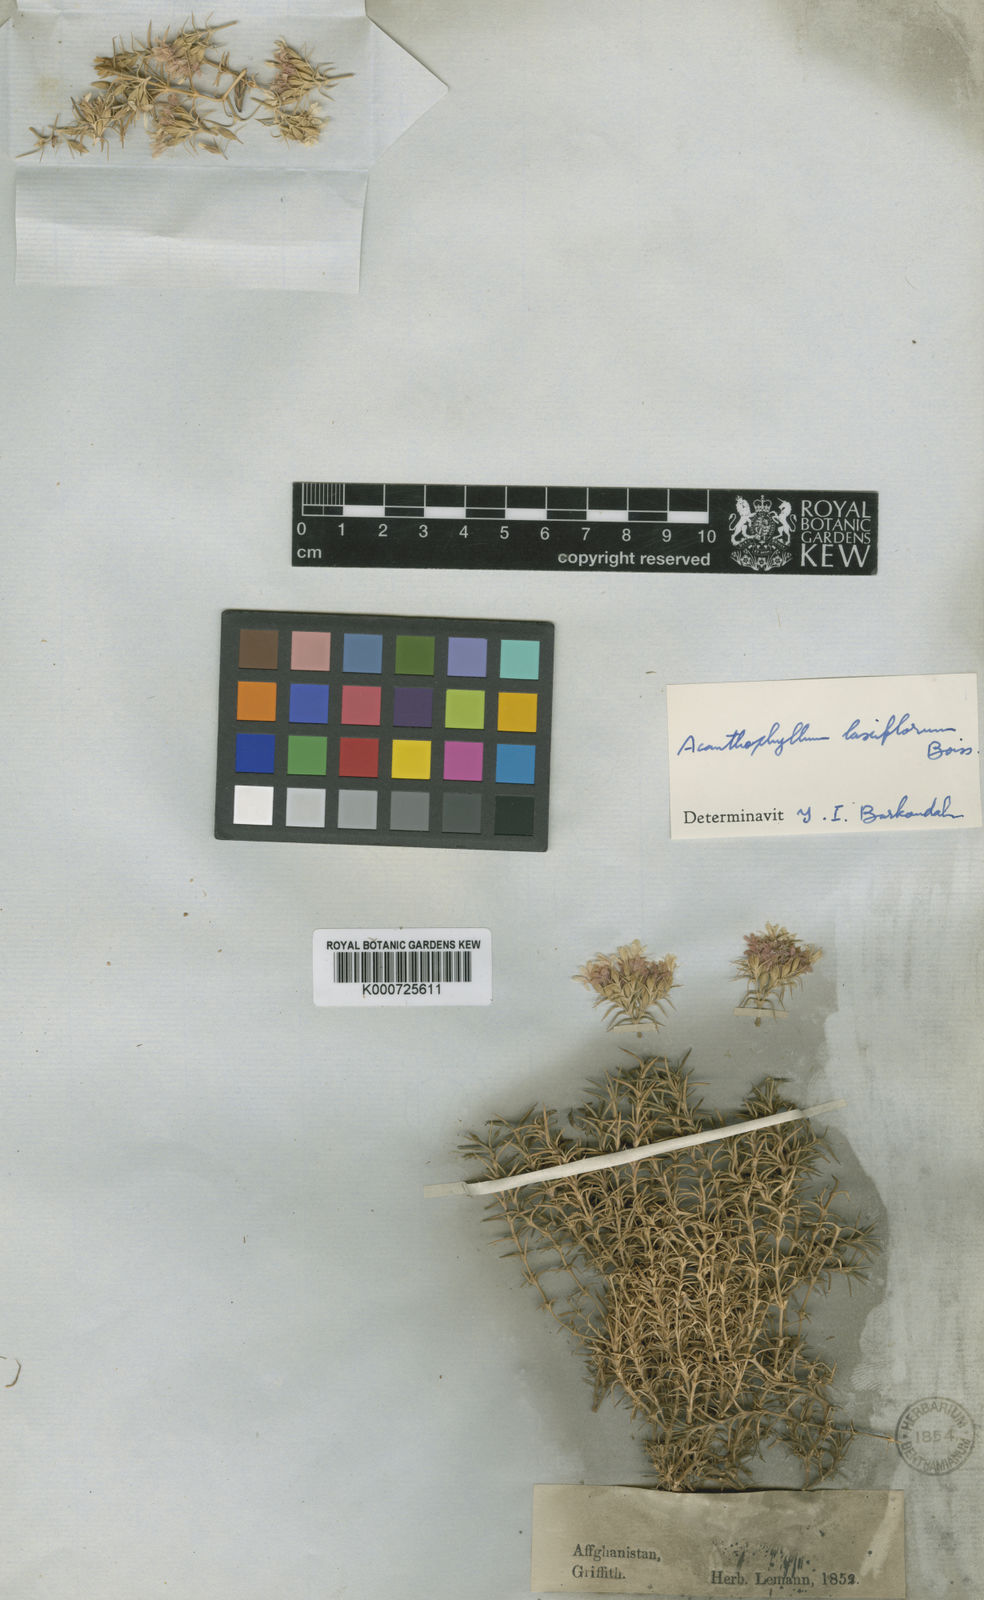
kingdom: Plantae
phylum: Tracheophyta
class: Magnoliopsida
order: Caryophyllales
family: Caryophyllaceae
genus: Acanthophyllum
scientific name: Acanthophyllum laxiflorum
